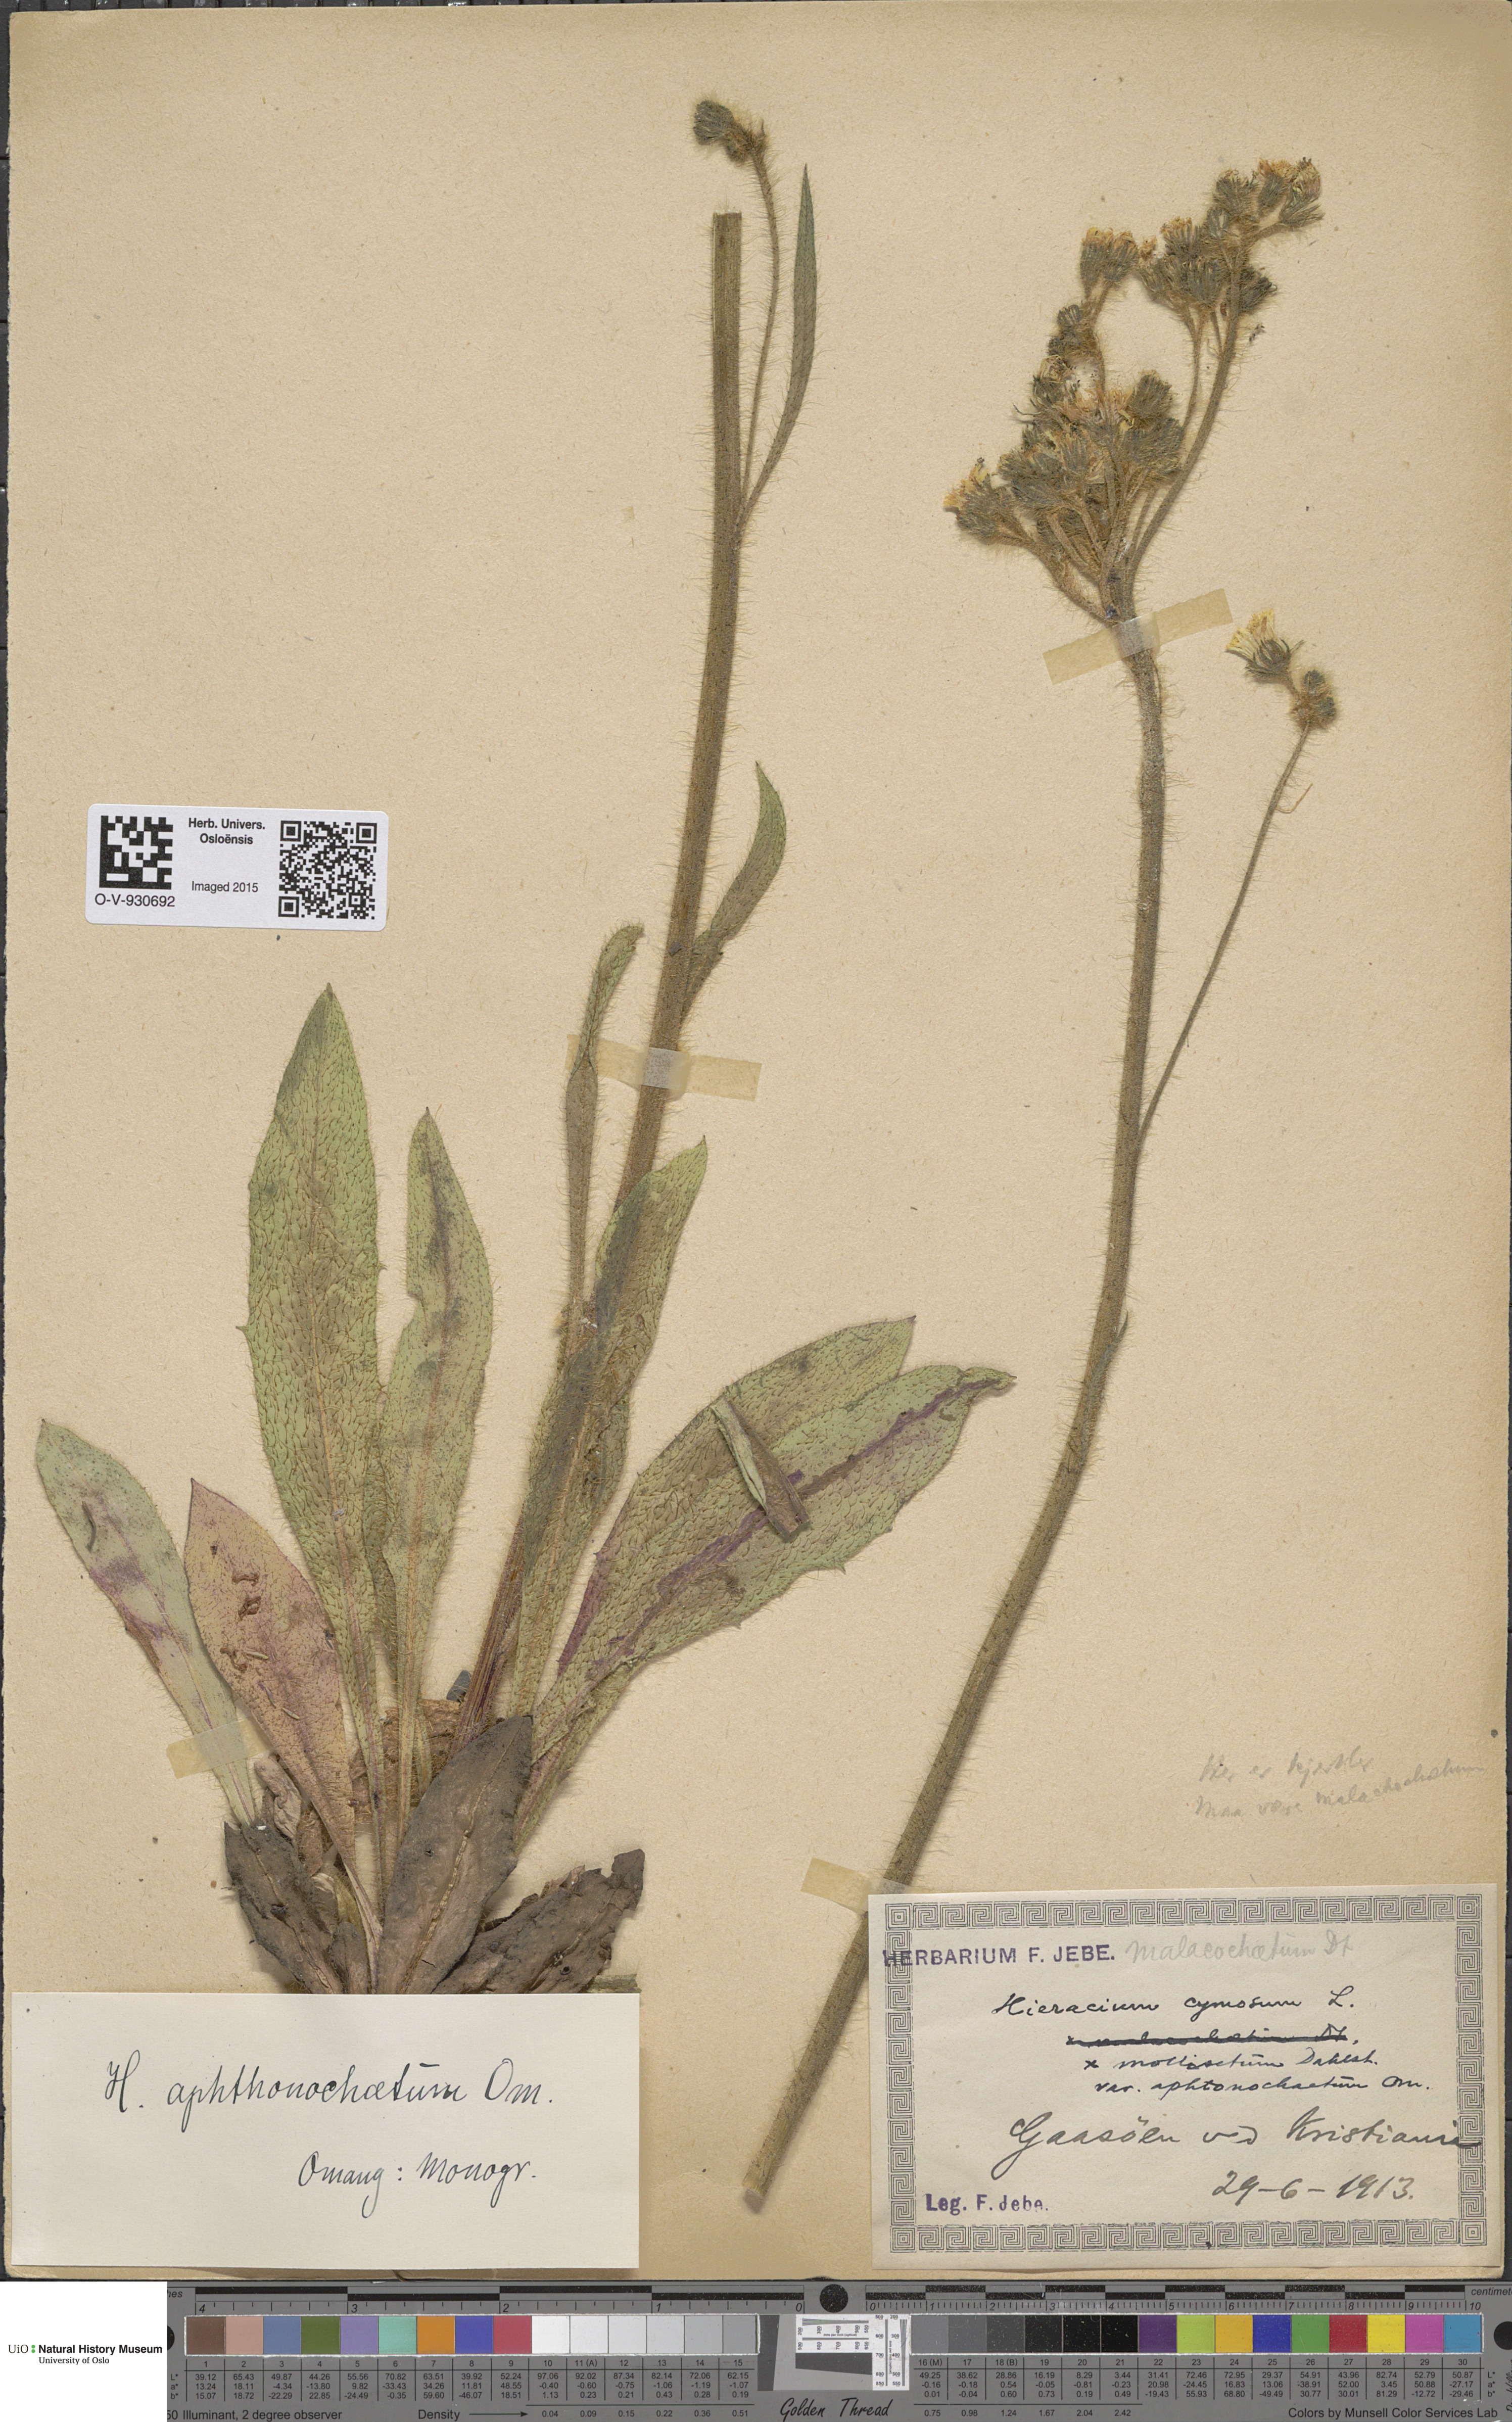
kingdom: Plantae
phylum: Tracheophyta
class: Magnoliopsida
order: Asterales
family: Asteraceae
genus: Pilosella
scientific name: Pilosella cymosa
